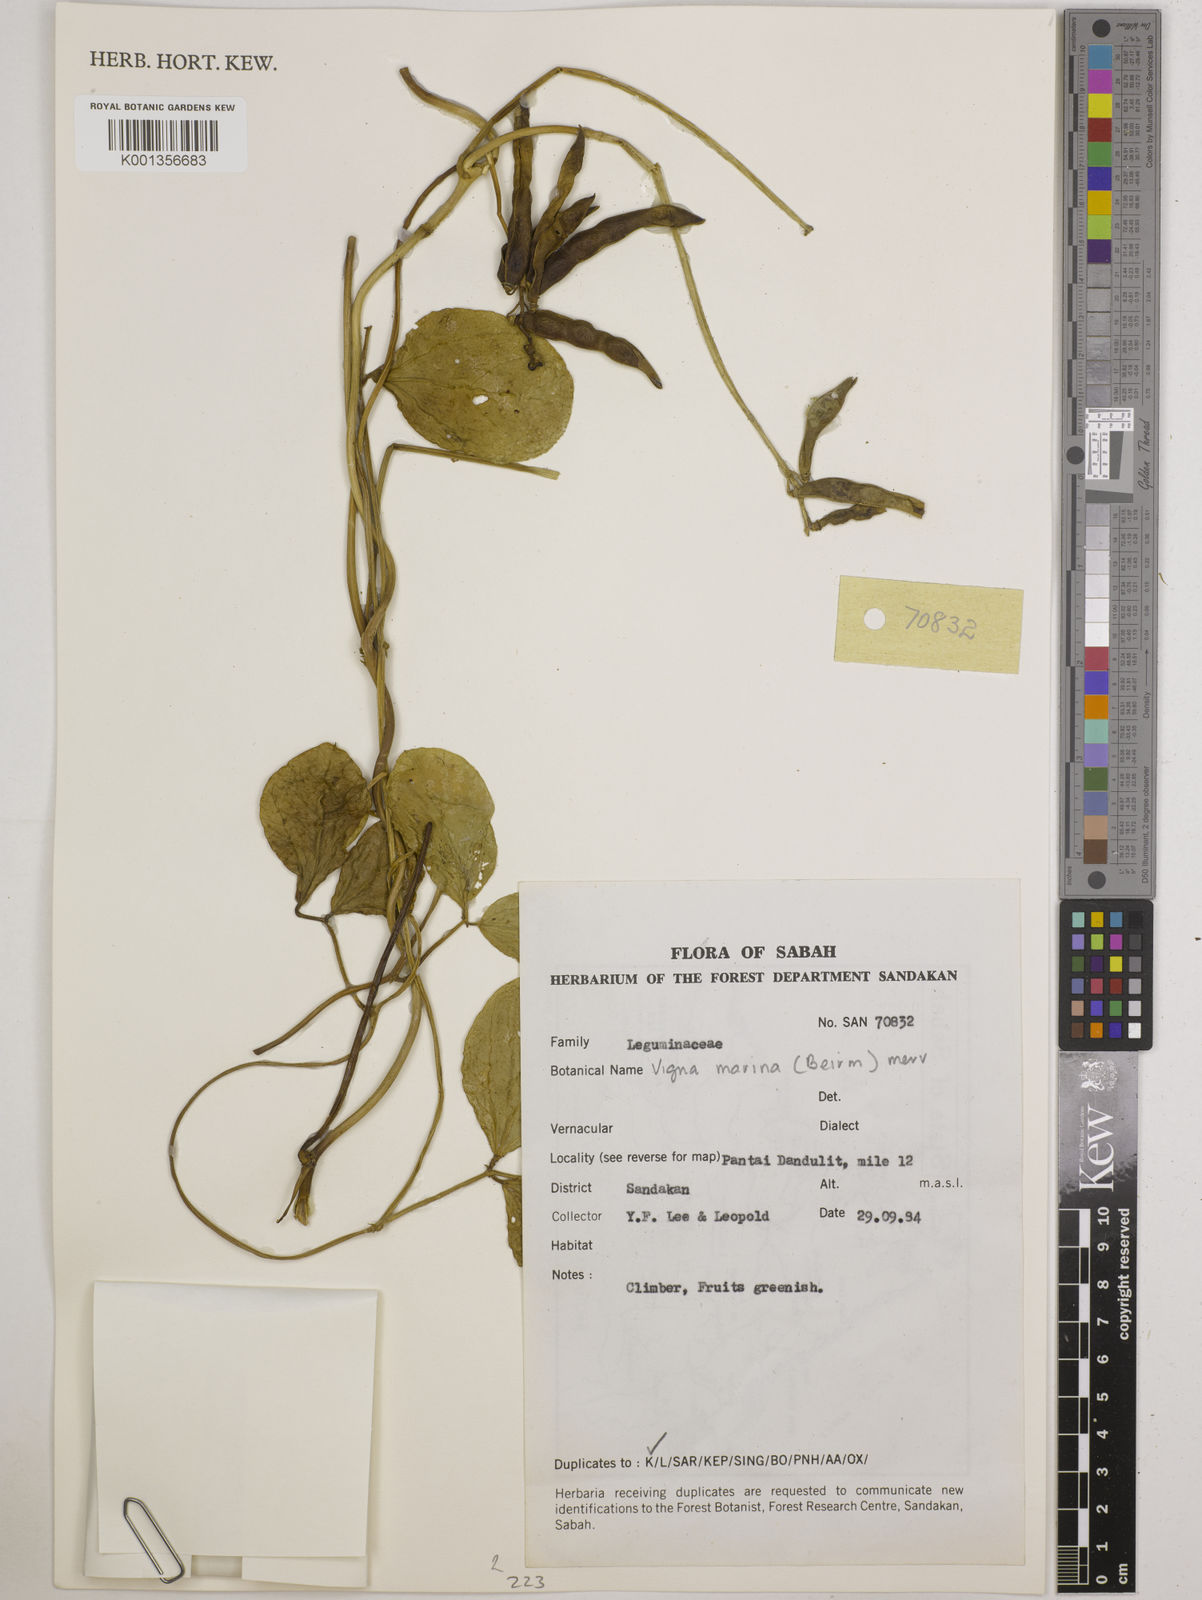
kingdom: Plantae
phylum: Tracheophyta
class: Magnoliopsida
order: Fabales
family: Fabaceae
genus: Vigna
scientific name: Vigna marina
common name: Dune-bean
